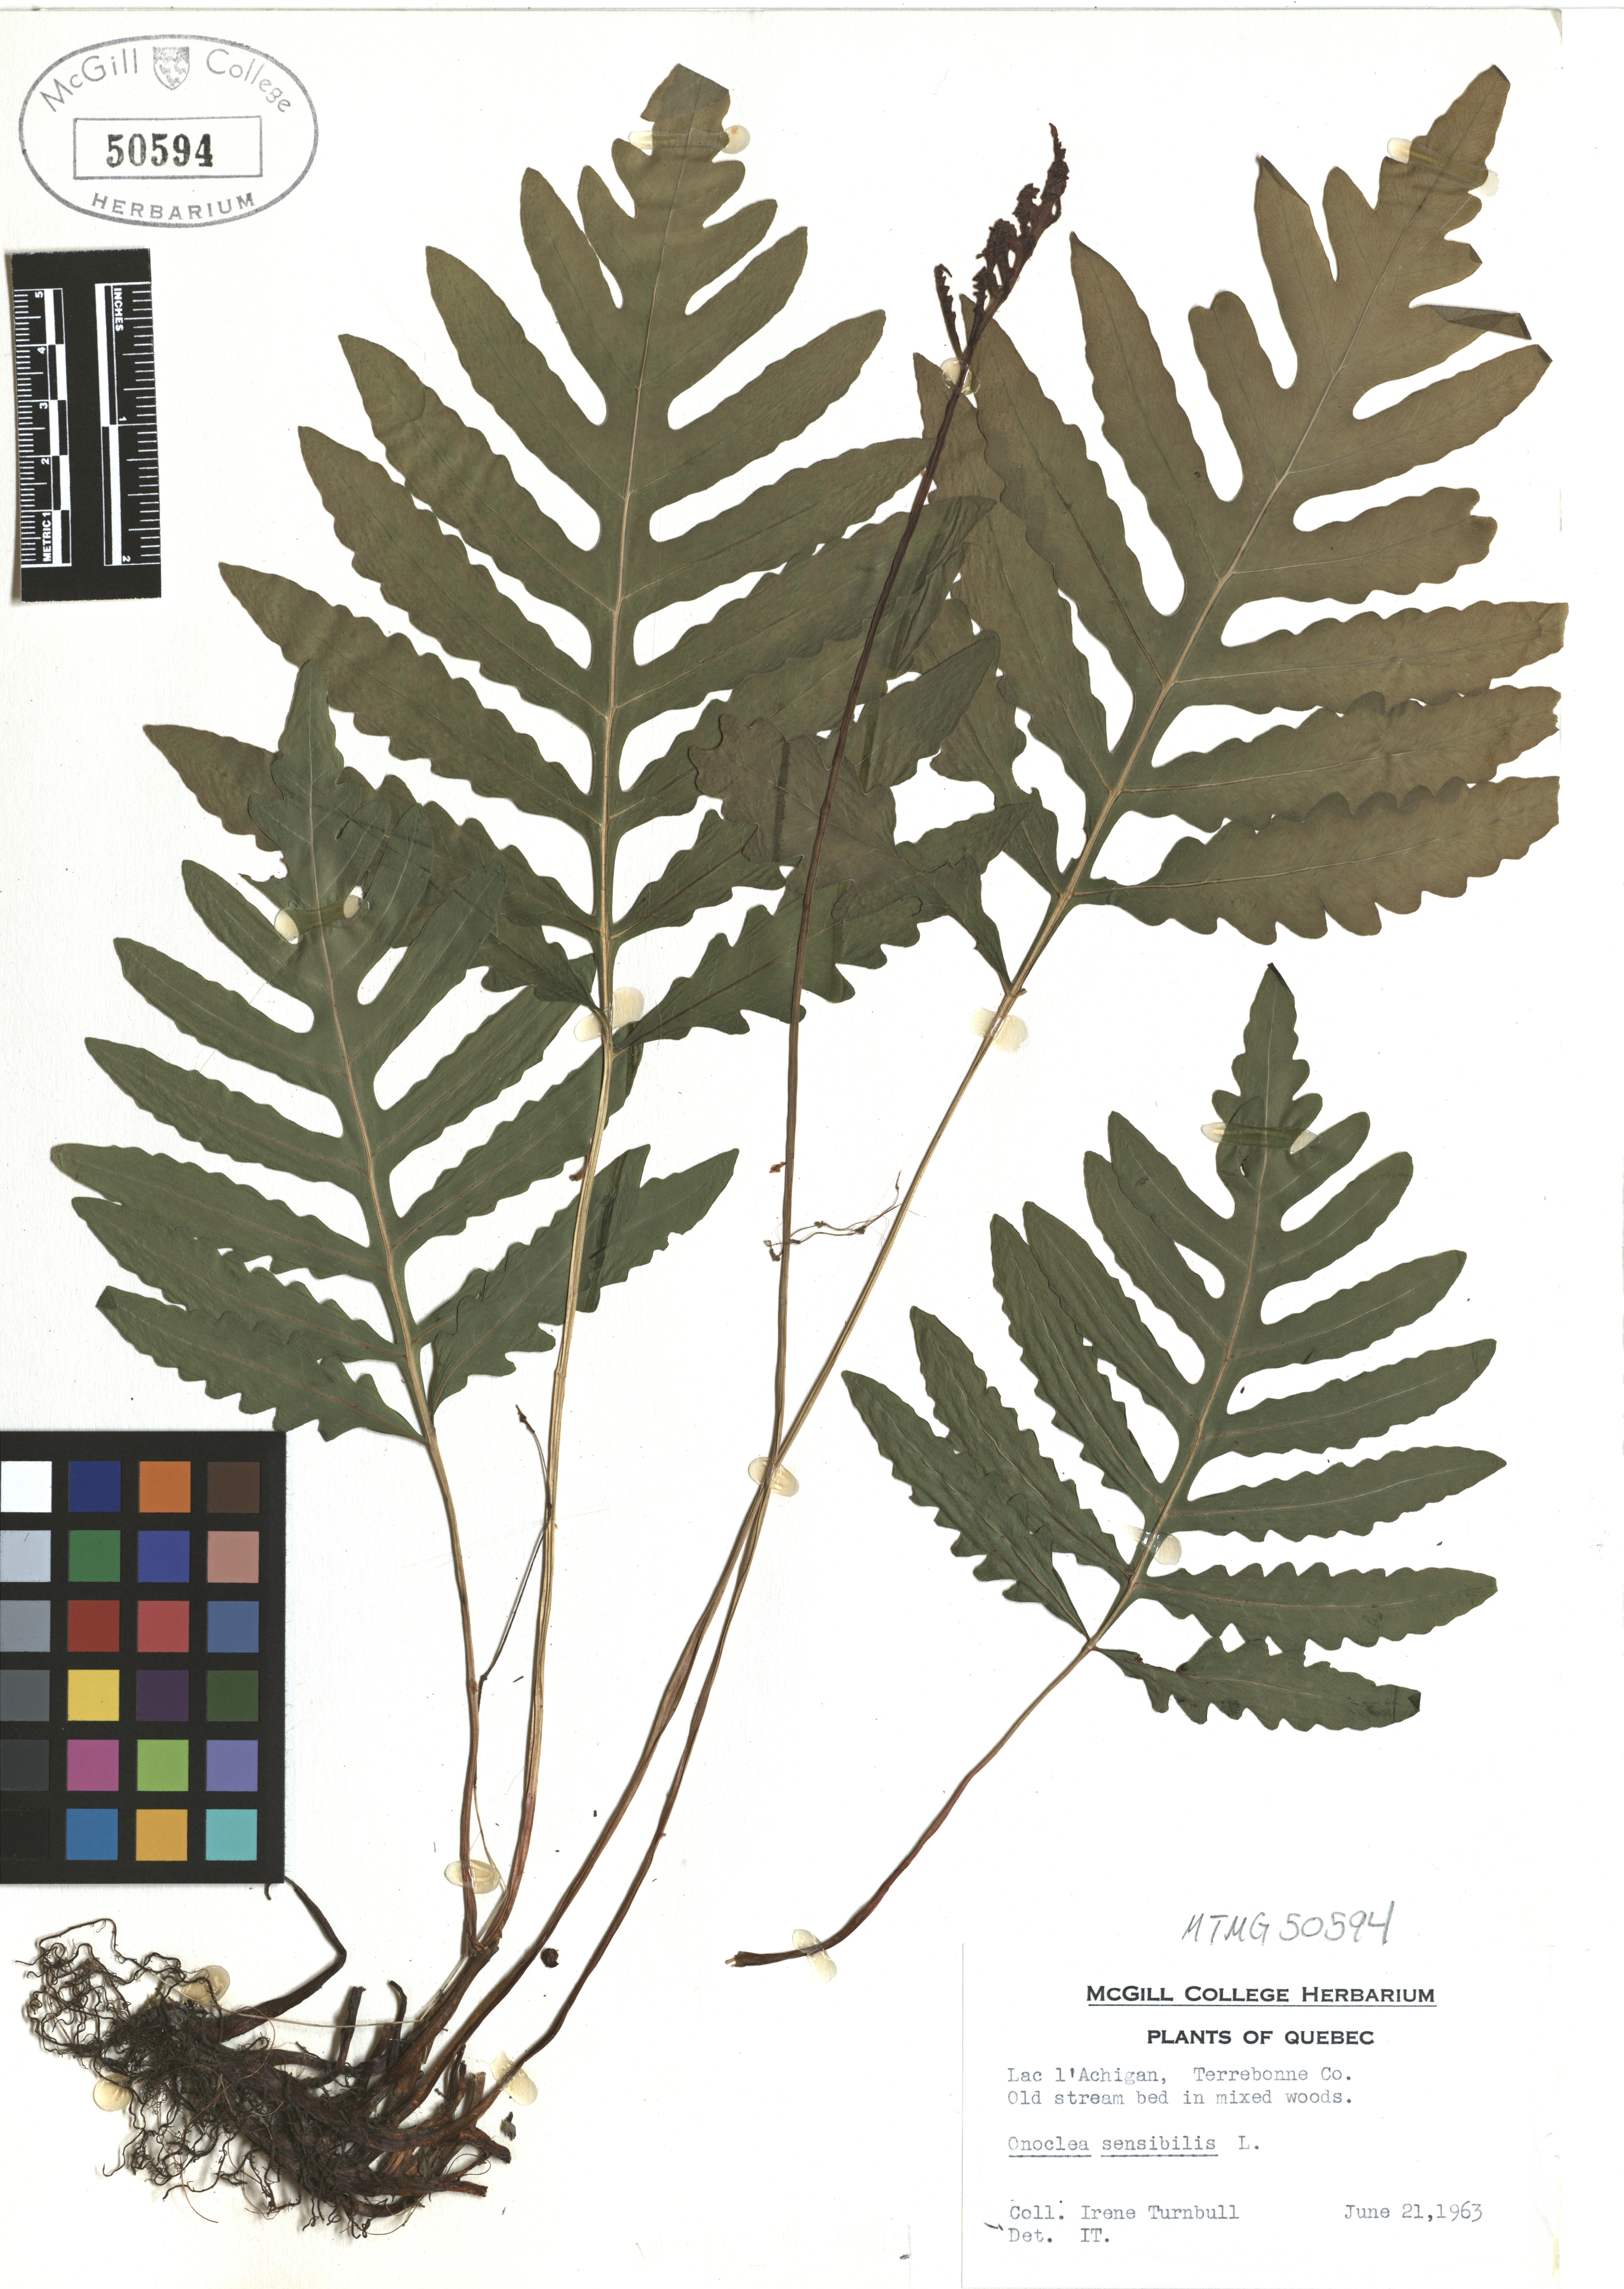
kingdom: Plantae
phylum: Tracheophyta
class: Polypodiopsida
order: Polypodiales
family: Onocleaceae
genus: Onoclea
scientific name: Onoclea sensibilis
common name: Sensitive fern
